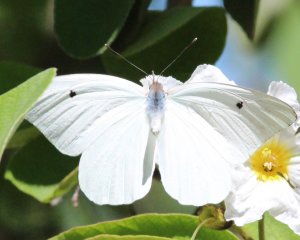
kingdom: Animalia
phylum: Arthropoda
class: Insecta
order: Lepidoptera
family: Pieridae
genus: Ganyra
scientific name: Ganyra josephina
